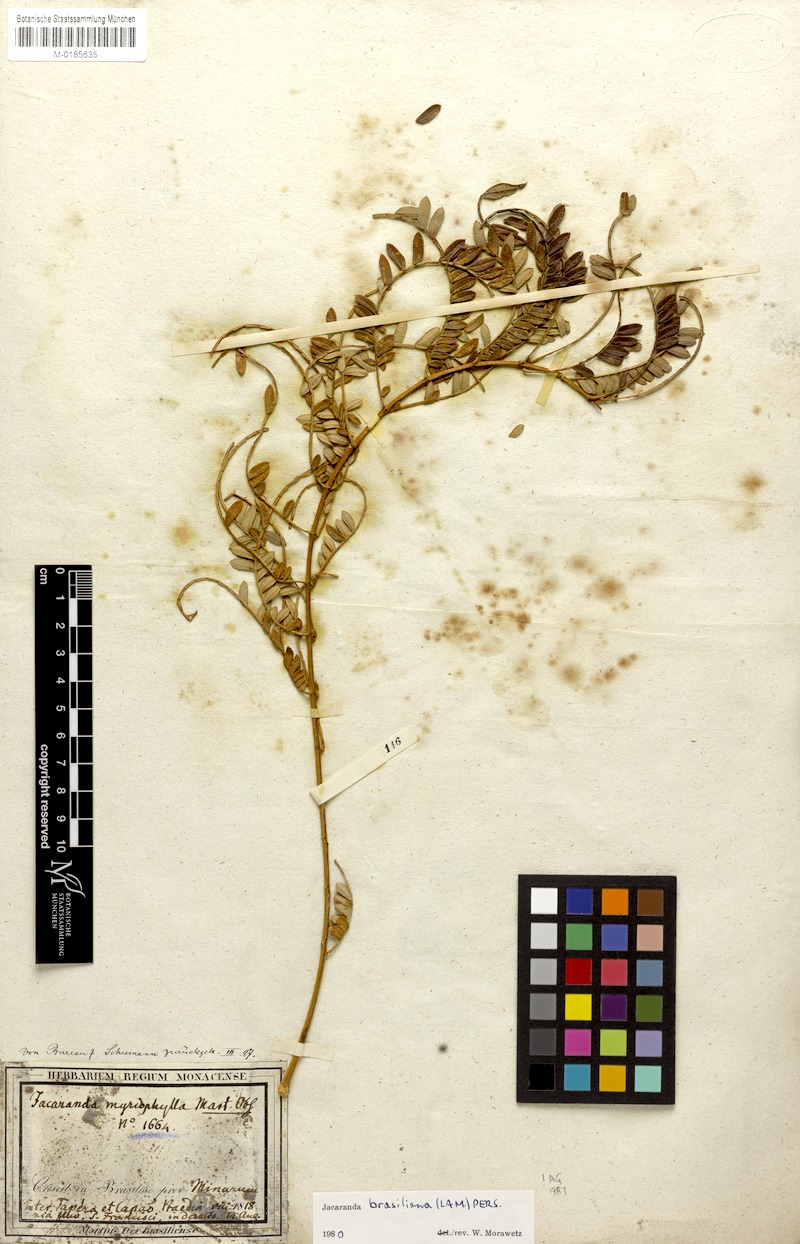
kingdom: Plantae
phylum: Tracheophyta
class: Magnoliopsida
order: Lamiales
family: Bignoniaceae
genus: Jacaranda
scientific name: Jacaranda brasiliana
